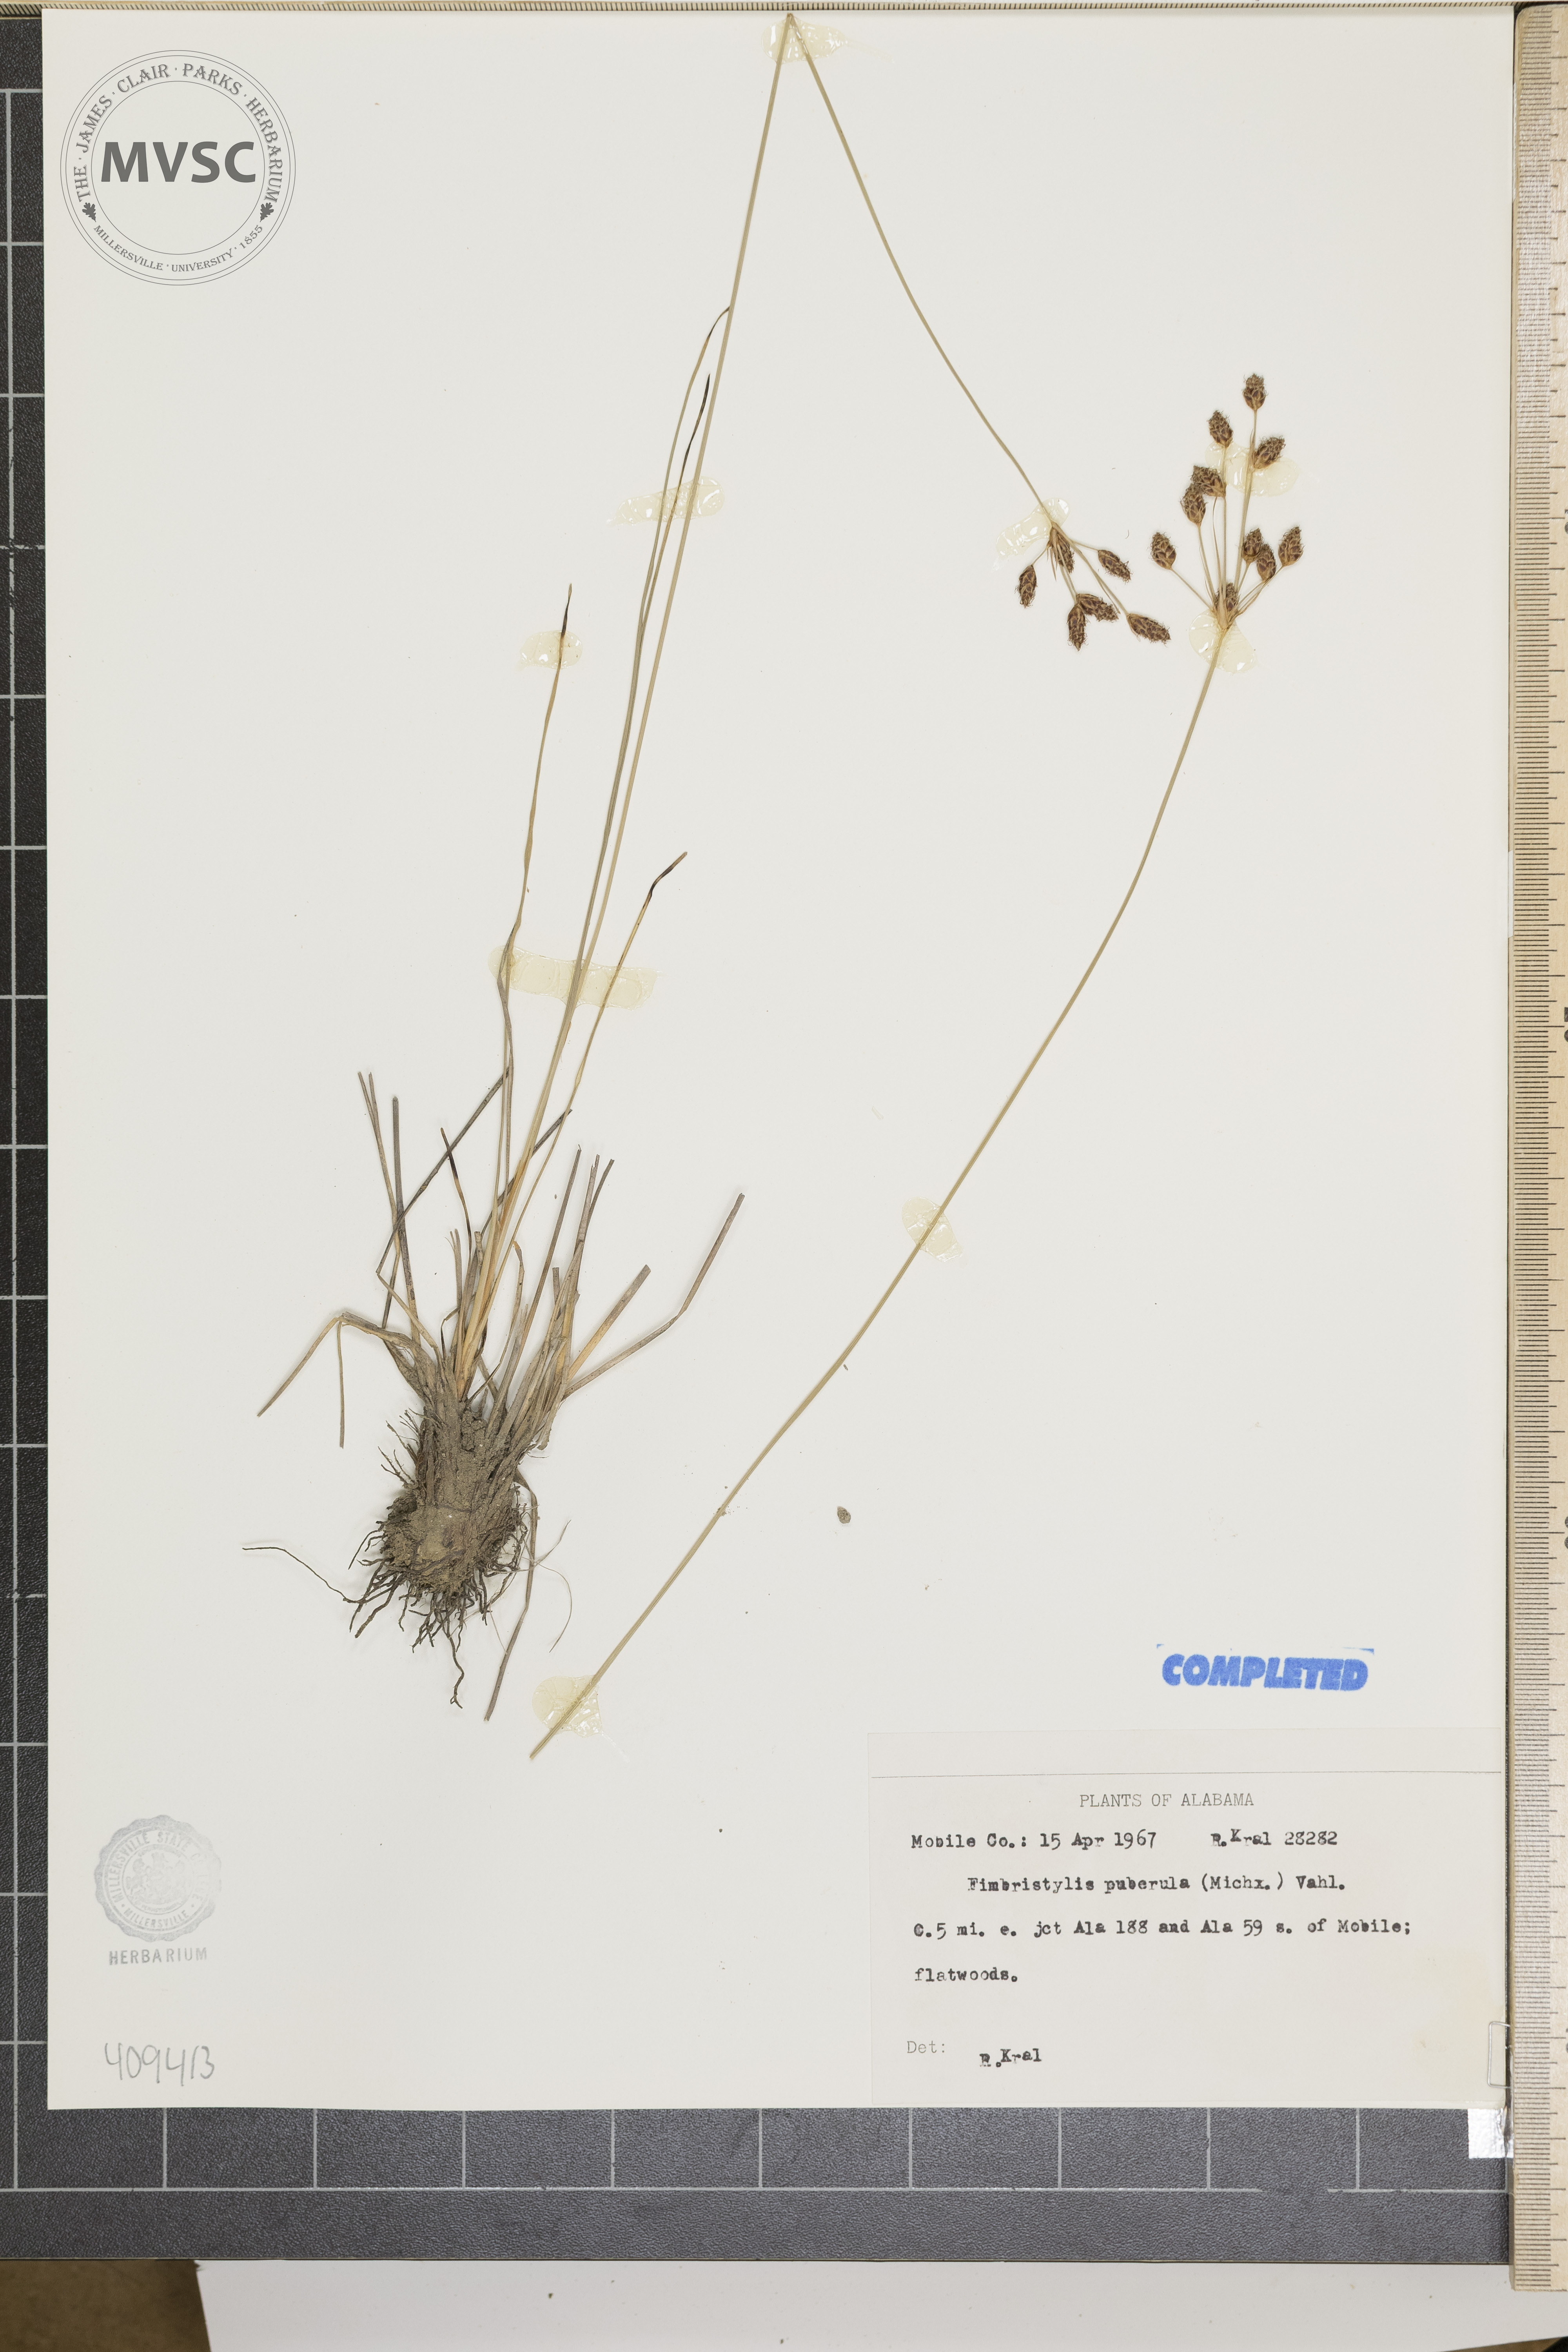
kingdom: Plantae
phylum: Tracheophyta
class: Liliopsida
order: Poales
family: Cyperaceae
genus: Fimbristylis
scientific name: Fimbristylis puberula
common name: hairy fimbry
